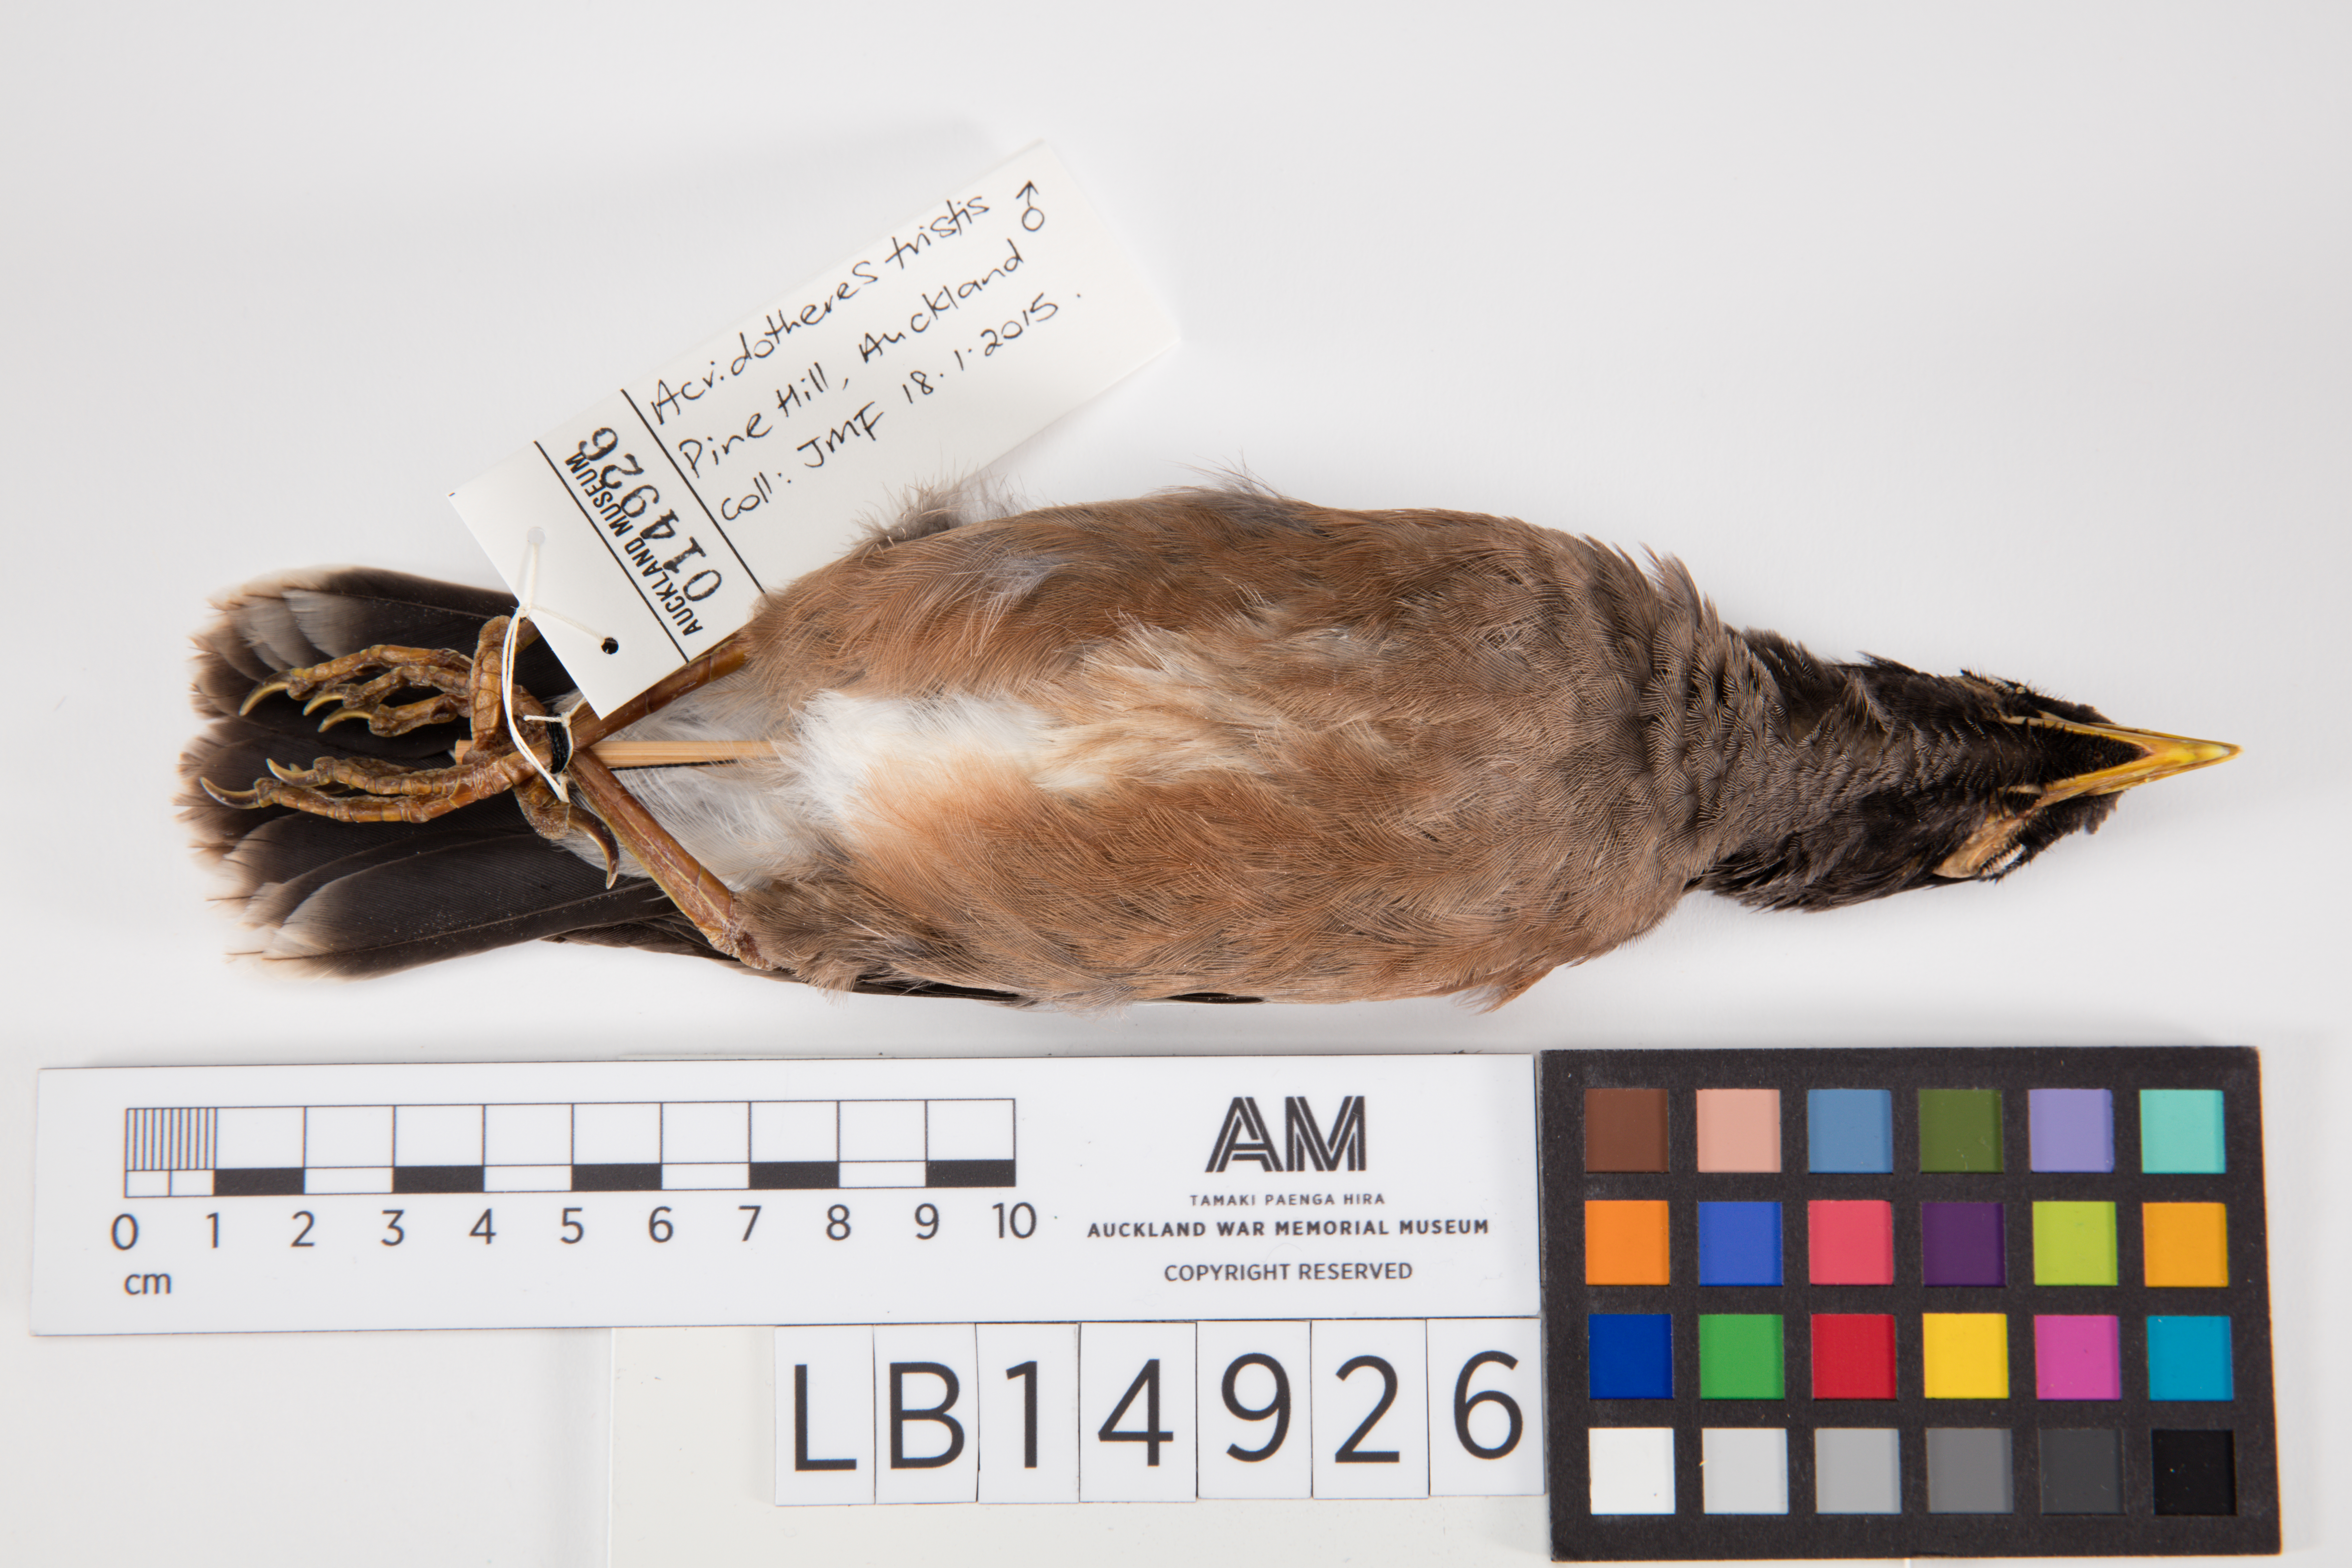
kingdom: Animalia
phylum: Chordata
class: Aves
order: Passeriformes
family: Sturnidae
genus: Acridotheres
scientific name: Acridotheres tristis
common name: Common myna
